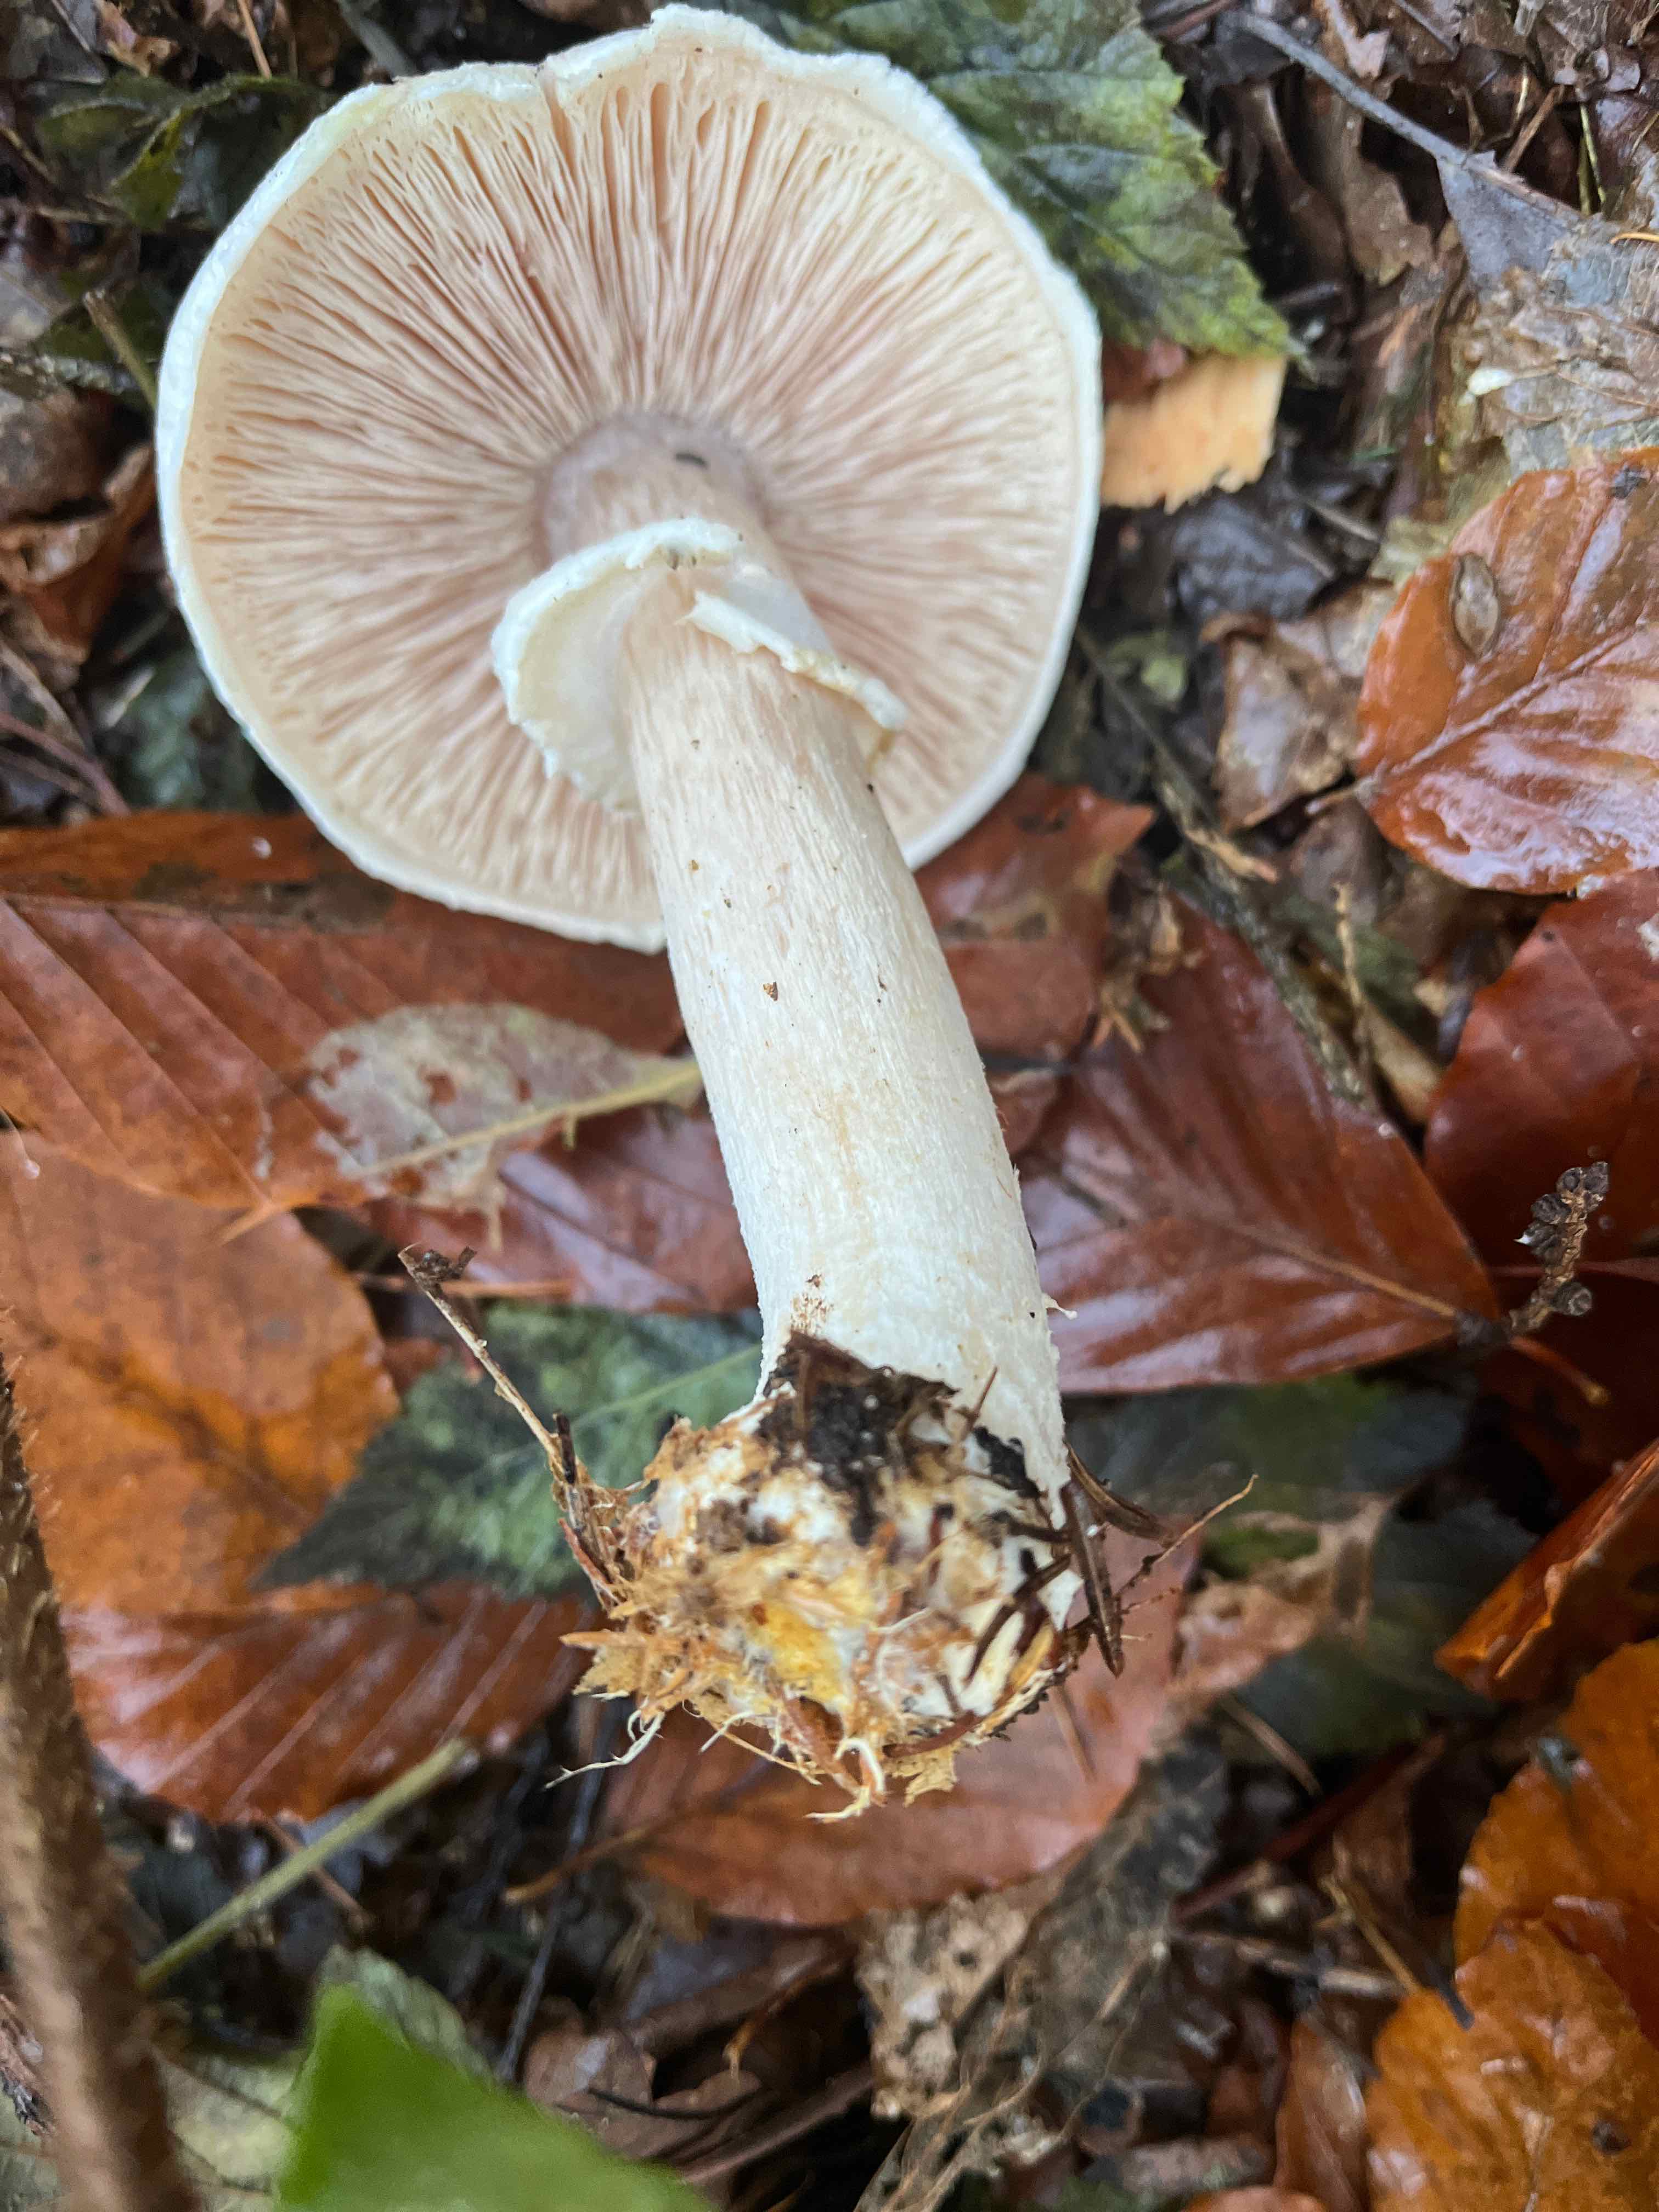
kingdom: Fungi
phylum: Basidiomycota
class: Agaricomycetes
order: Agaricales
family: Agaricaceae
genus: Agaricus
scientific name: Agaricus sylvicola
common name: skiveknoldet champignon
